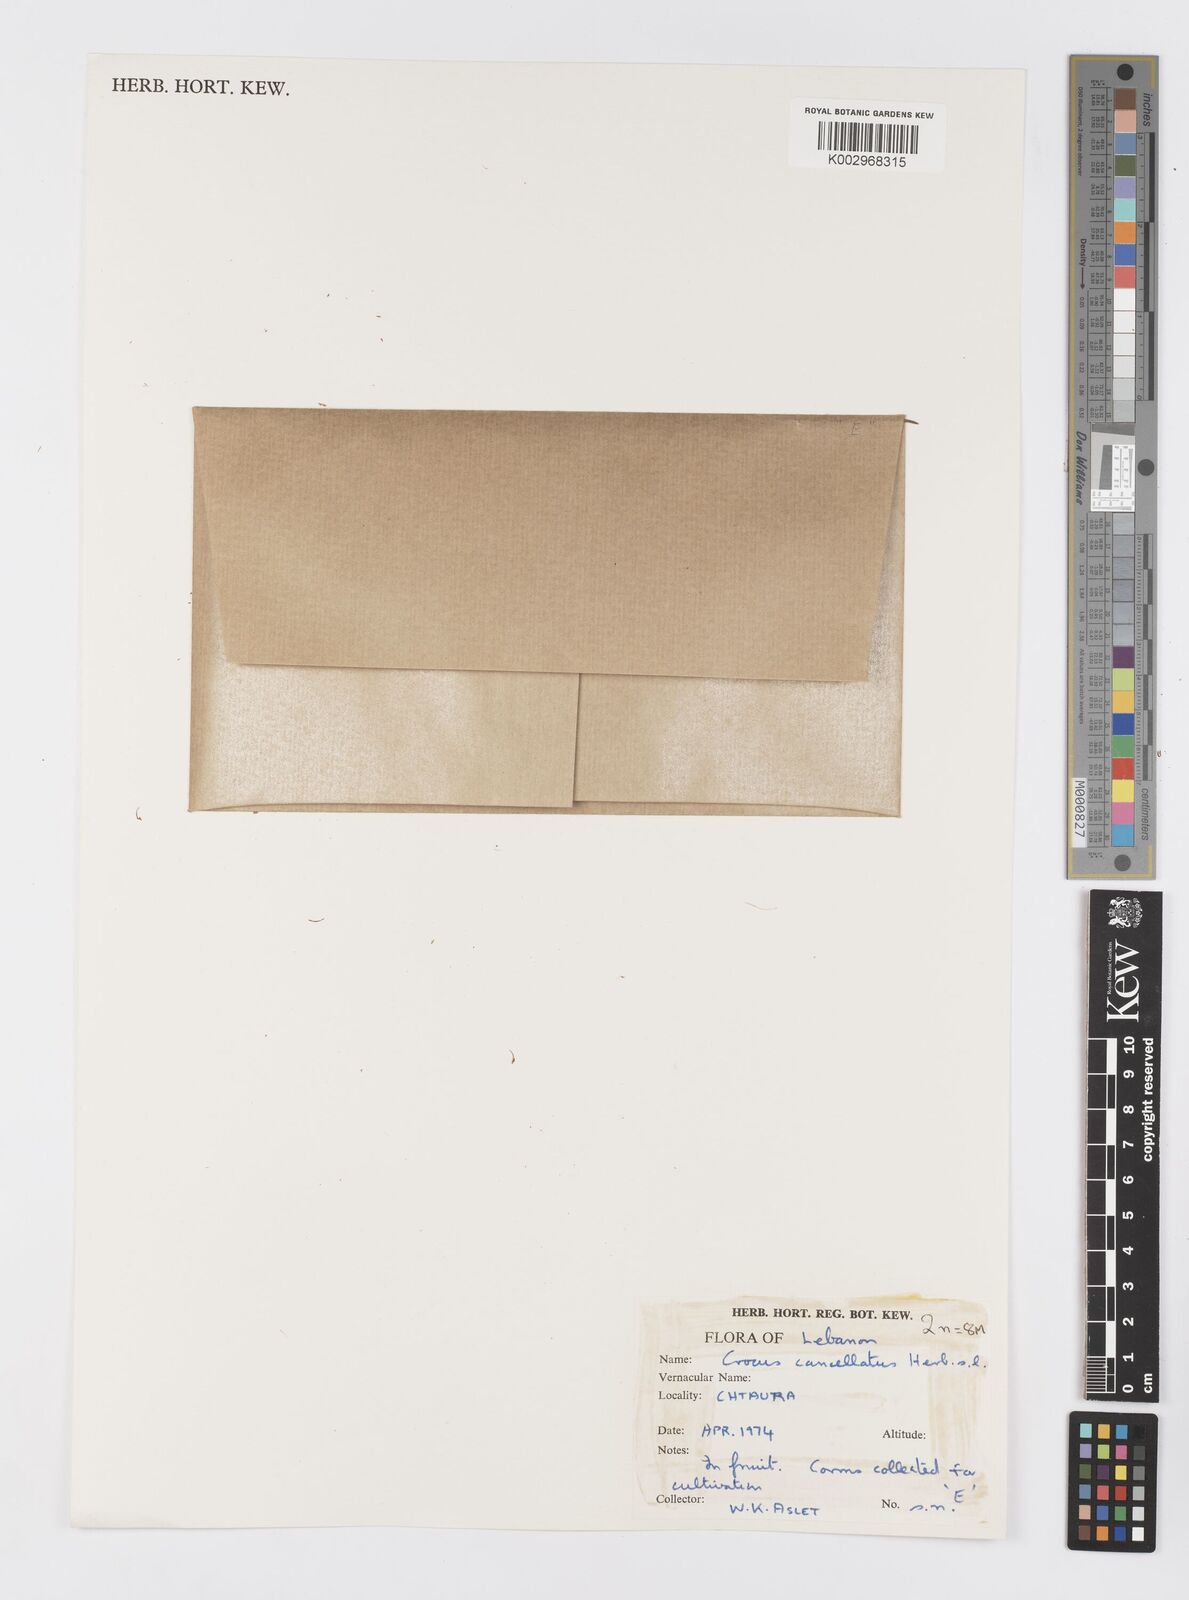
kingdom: Plantae
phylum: Tracheophyta
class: Liliopsida
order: Asparagales
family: Iridaceae
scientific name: Iridaceae
